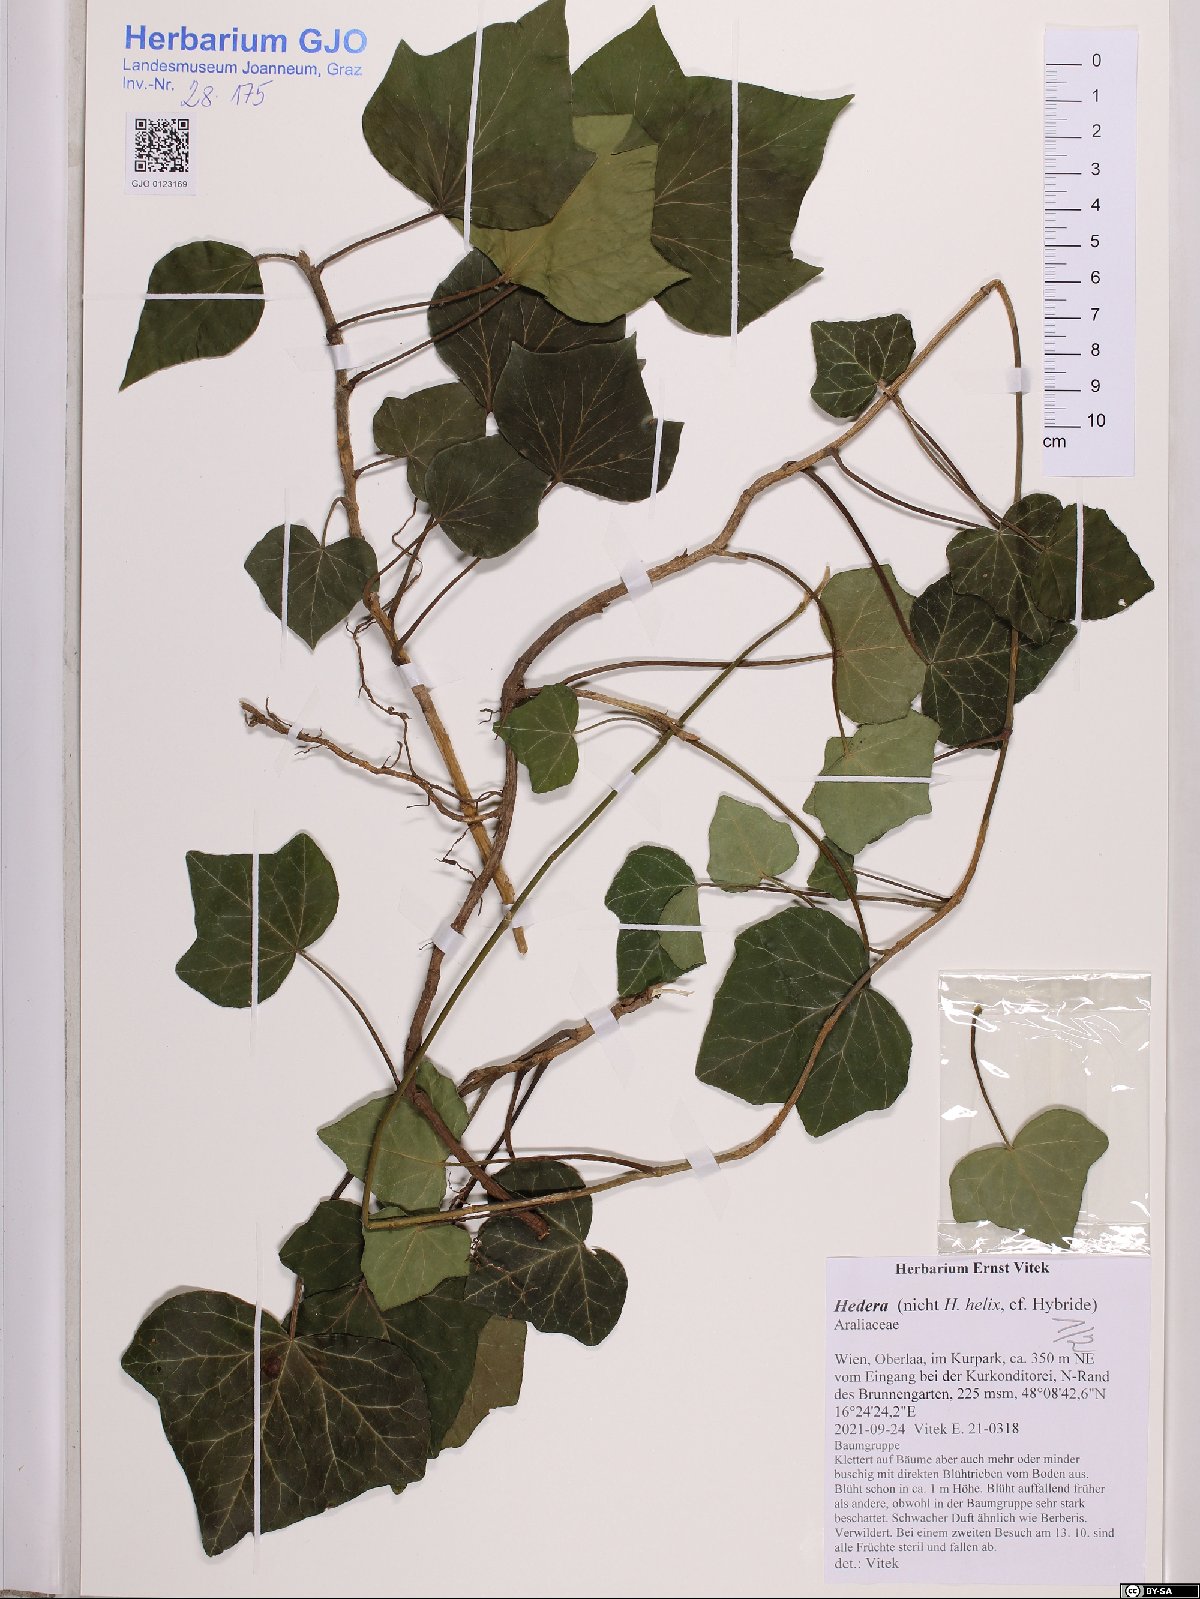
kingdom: Plantae
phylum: Tracheophyta
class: Magnoliopsida
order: Apiales
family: Araliaceae
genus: Hedera
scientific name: Hedera
